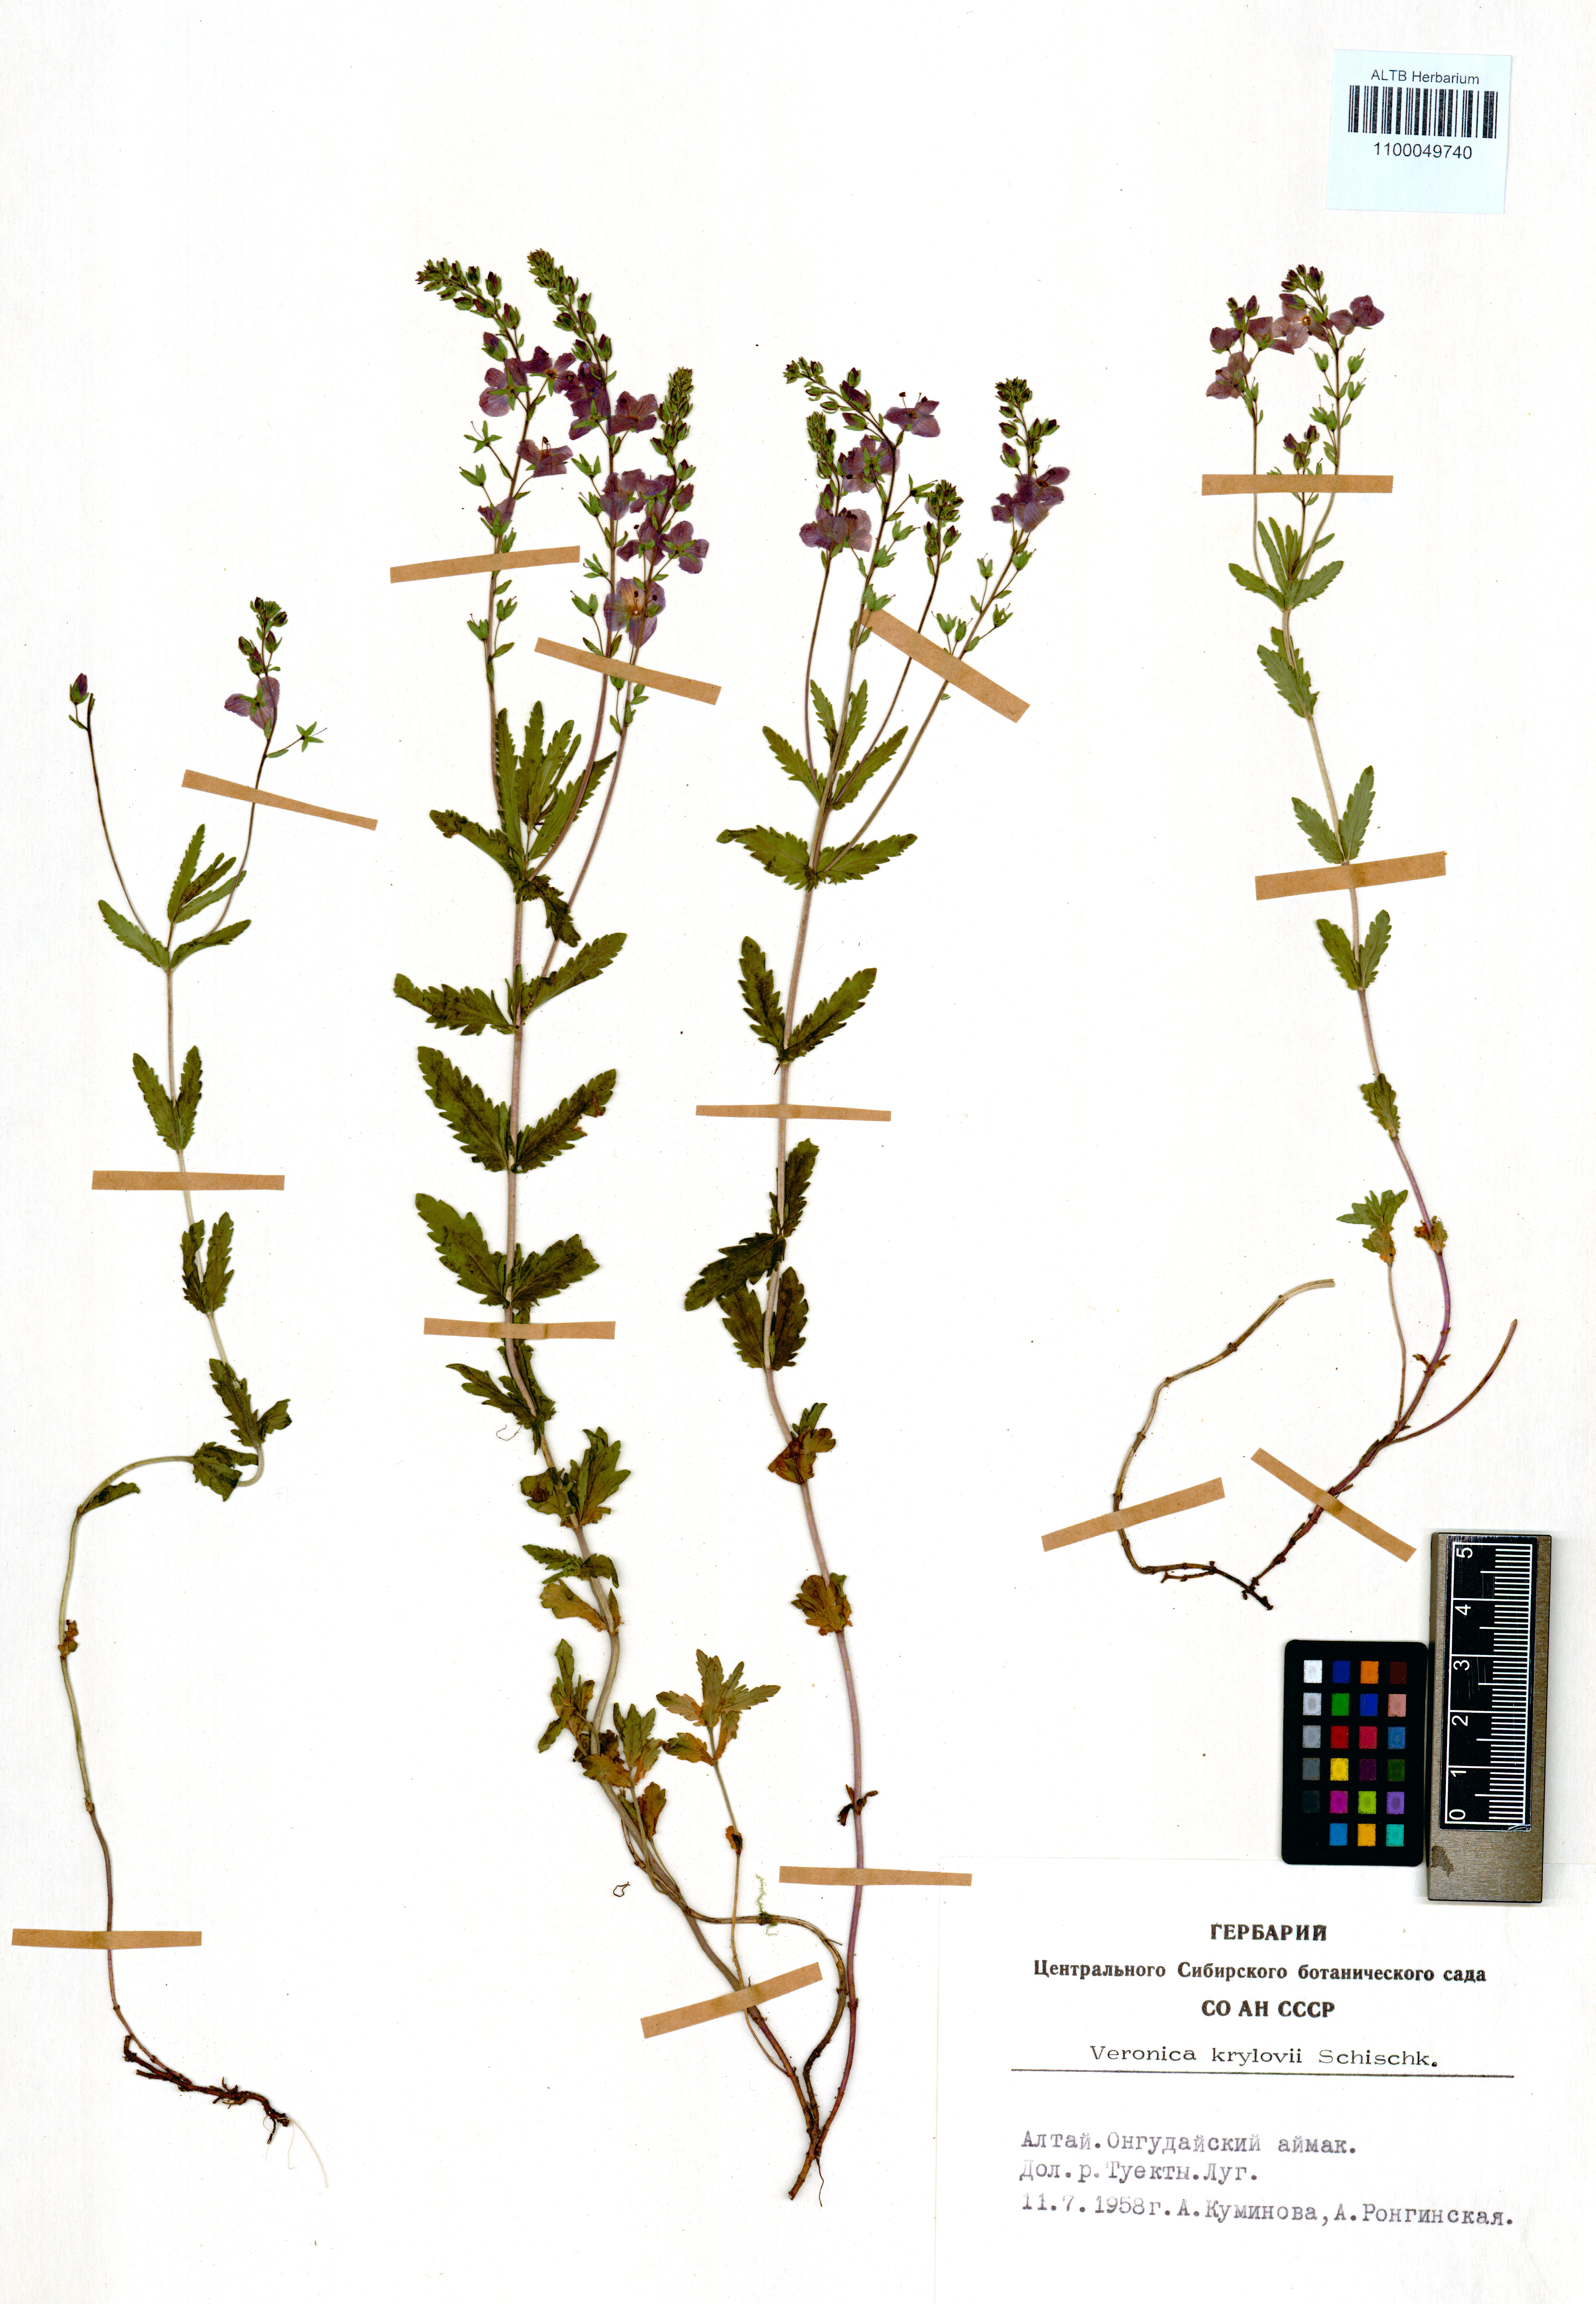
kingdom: Plantae
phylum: Tracheophyta
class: Magnoliopsida
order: Lamiales
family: Plantaginaceae
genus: Veronica
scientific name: Veronica krylovii
